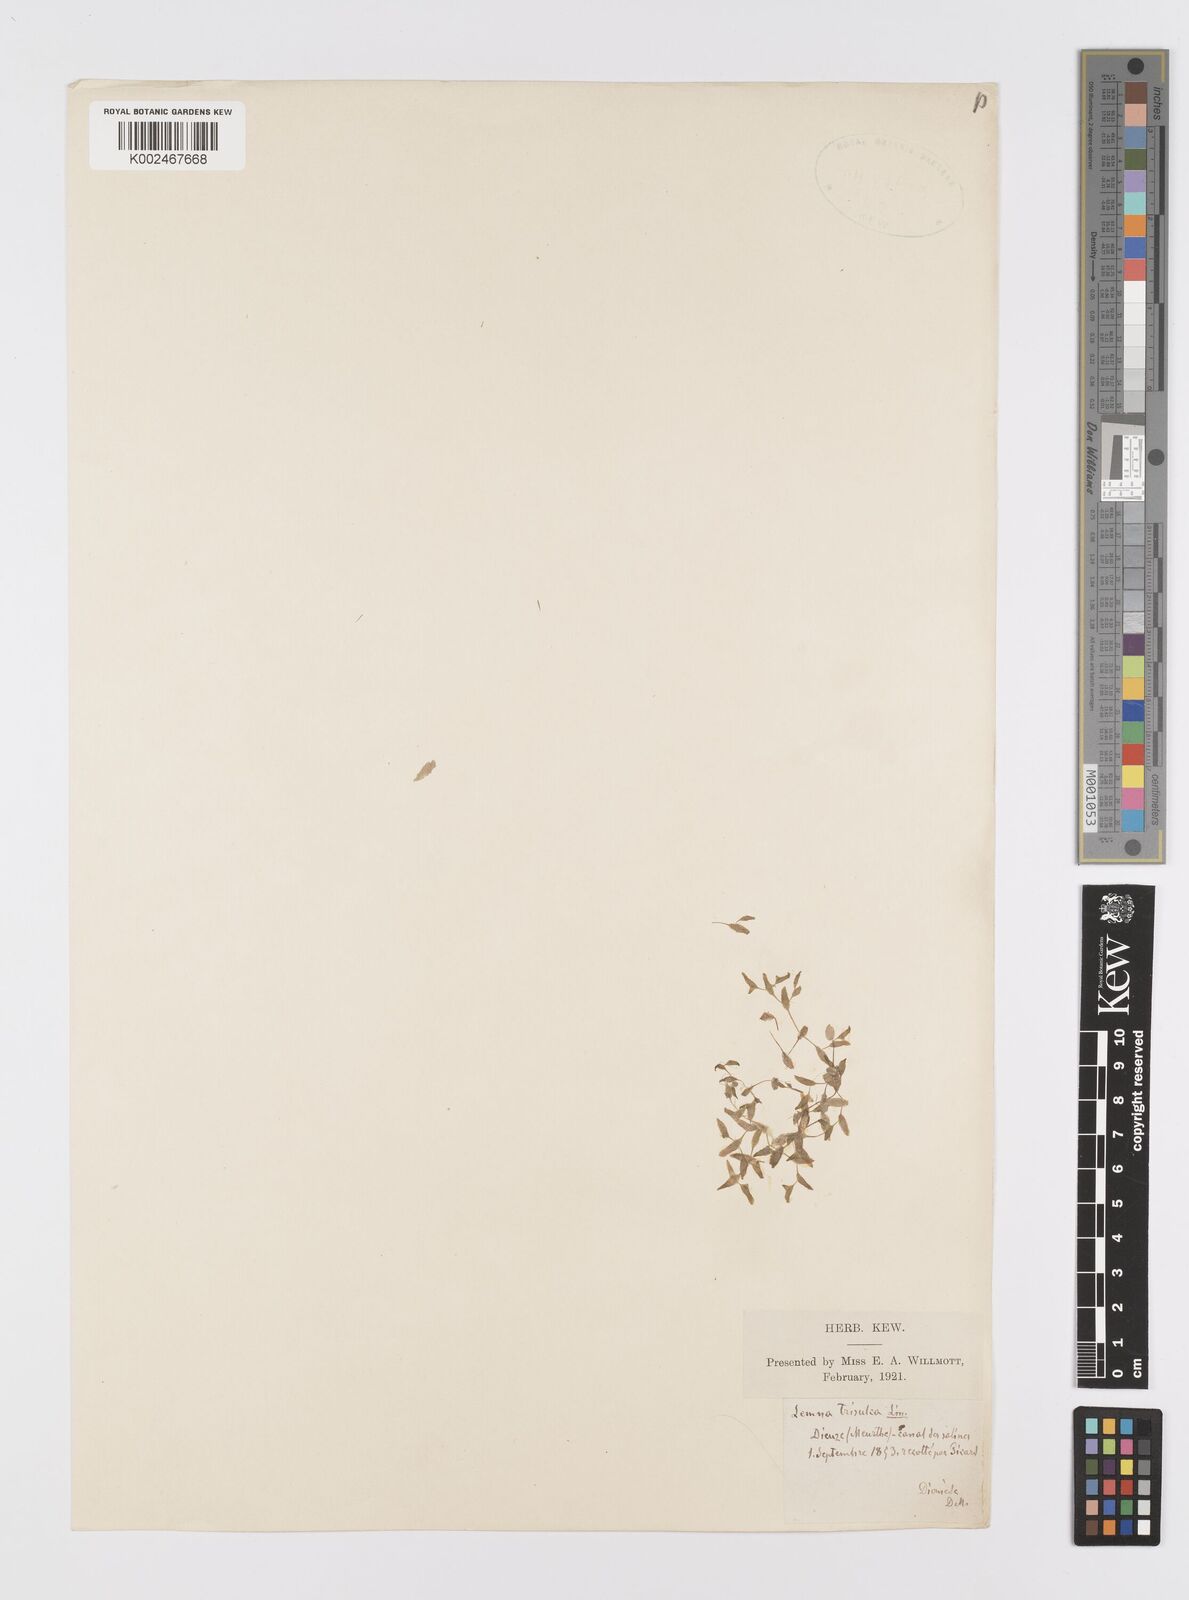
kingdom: Plantae
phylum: Tracheophyta
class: Liliopsida
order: Alismatales
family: Araceae
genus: Lemna
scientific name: Lemna trisulca
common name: Ivy-leaved duckweed
